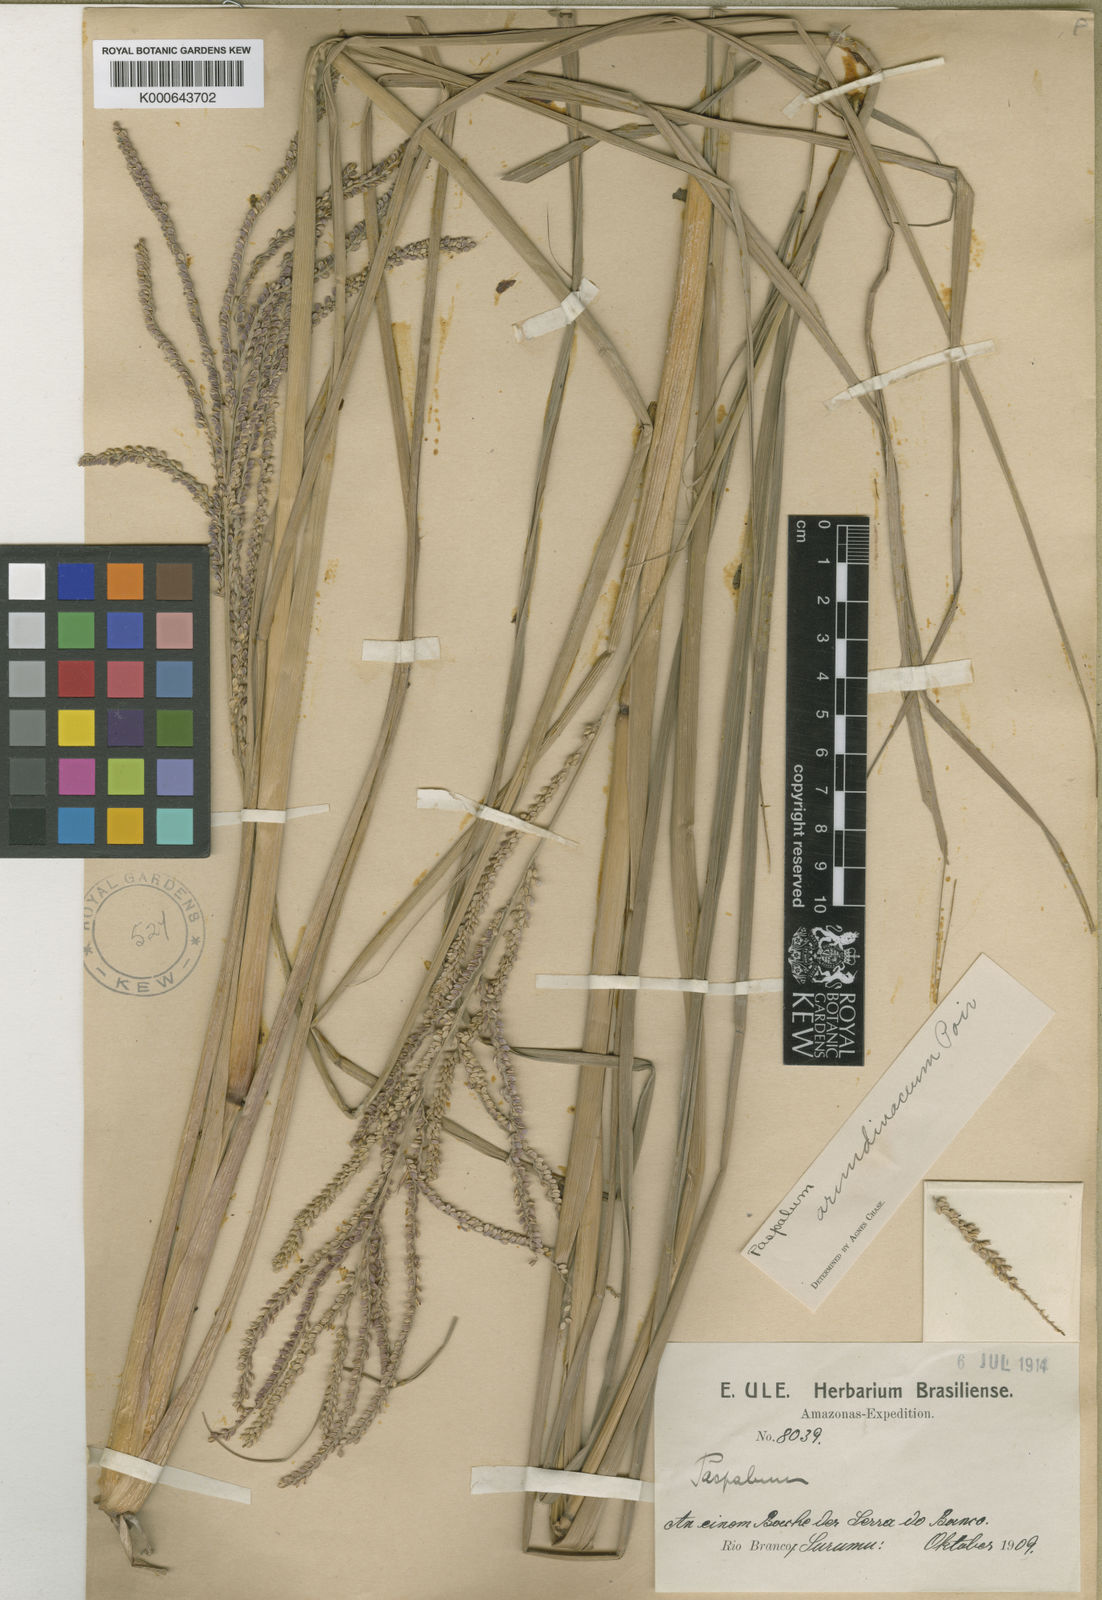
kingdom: Plantae
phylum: Tracheophyta
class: Liliopsida
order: Poales
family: Poaceae
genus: Paspalum
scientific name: Paspalum arundinaceum
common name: Thick ditch crowngrass
